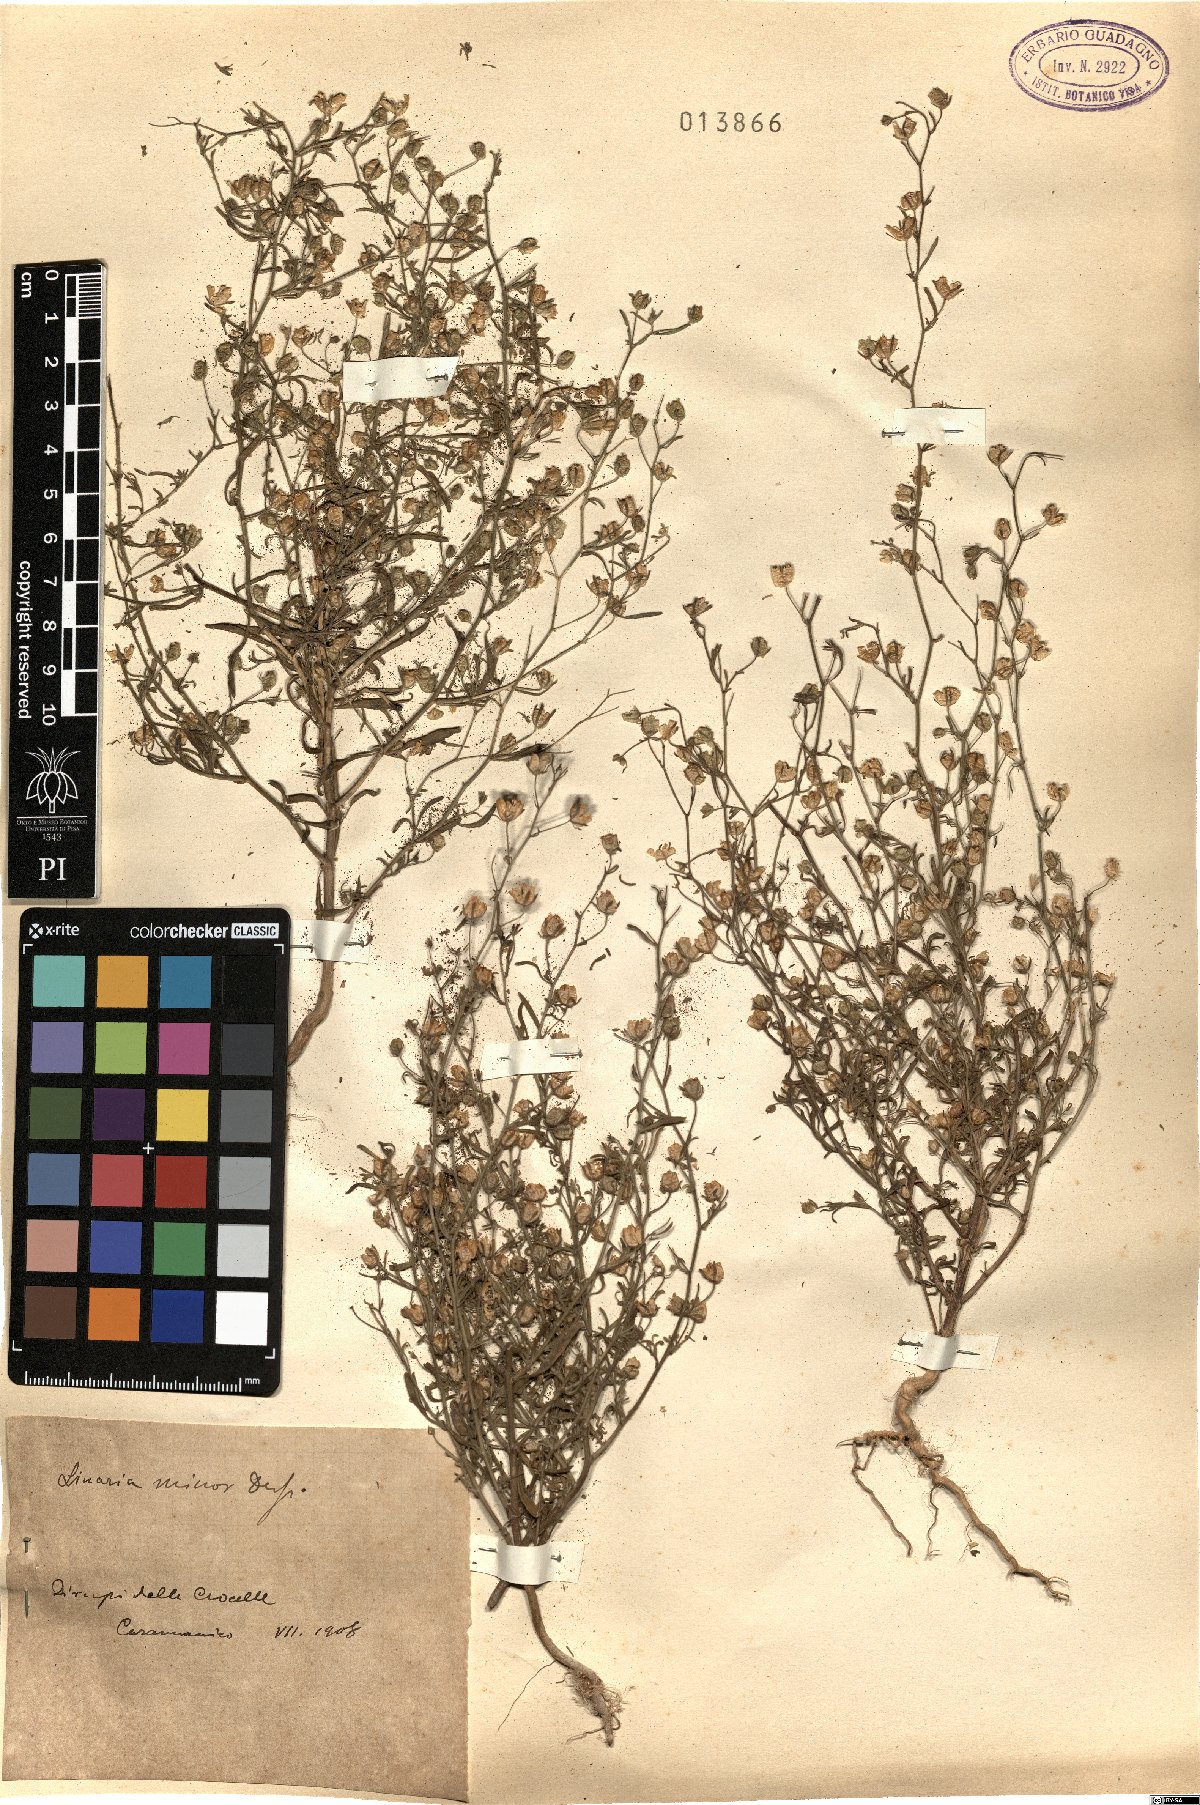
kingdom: Plantae
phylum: Tracheophyta
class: Magnoliopsida
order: Lamiales
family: Plantaginaceae
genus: Chaenorhinum
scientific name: Chaenorhinum minus
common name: Dwarf snapdragon
